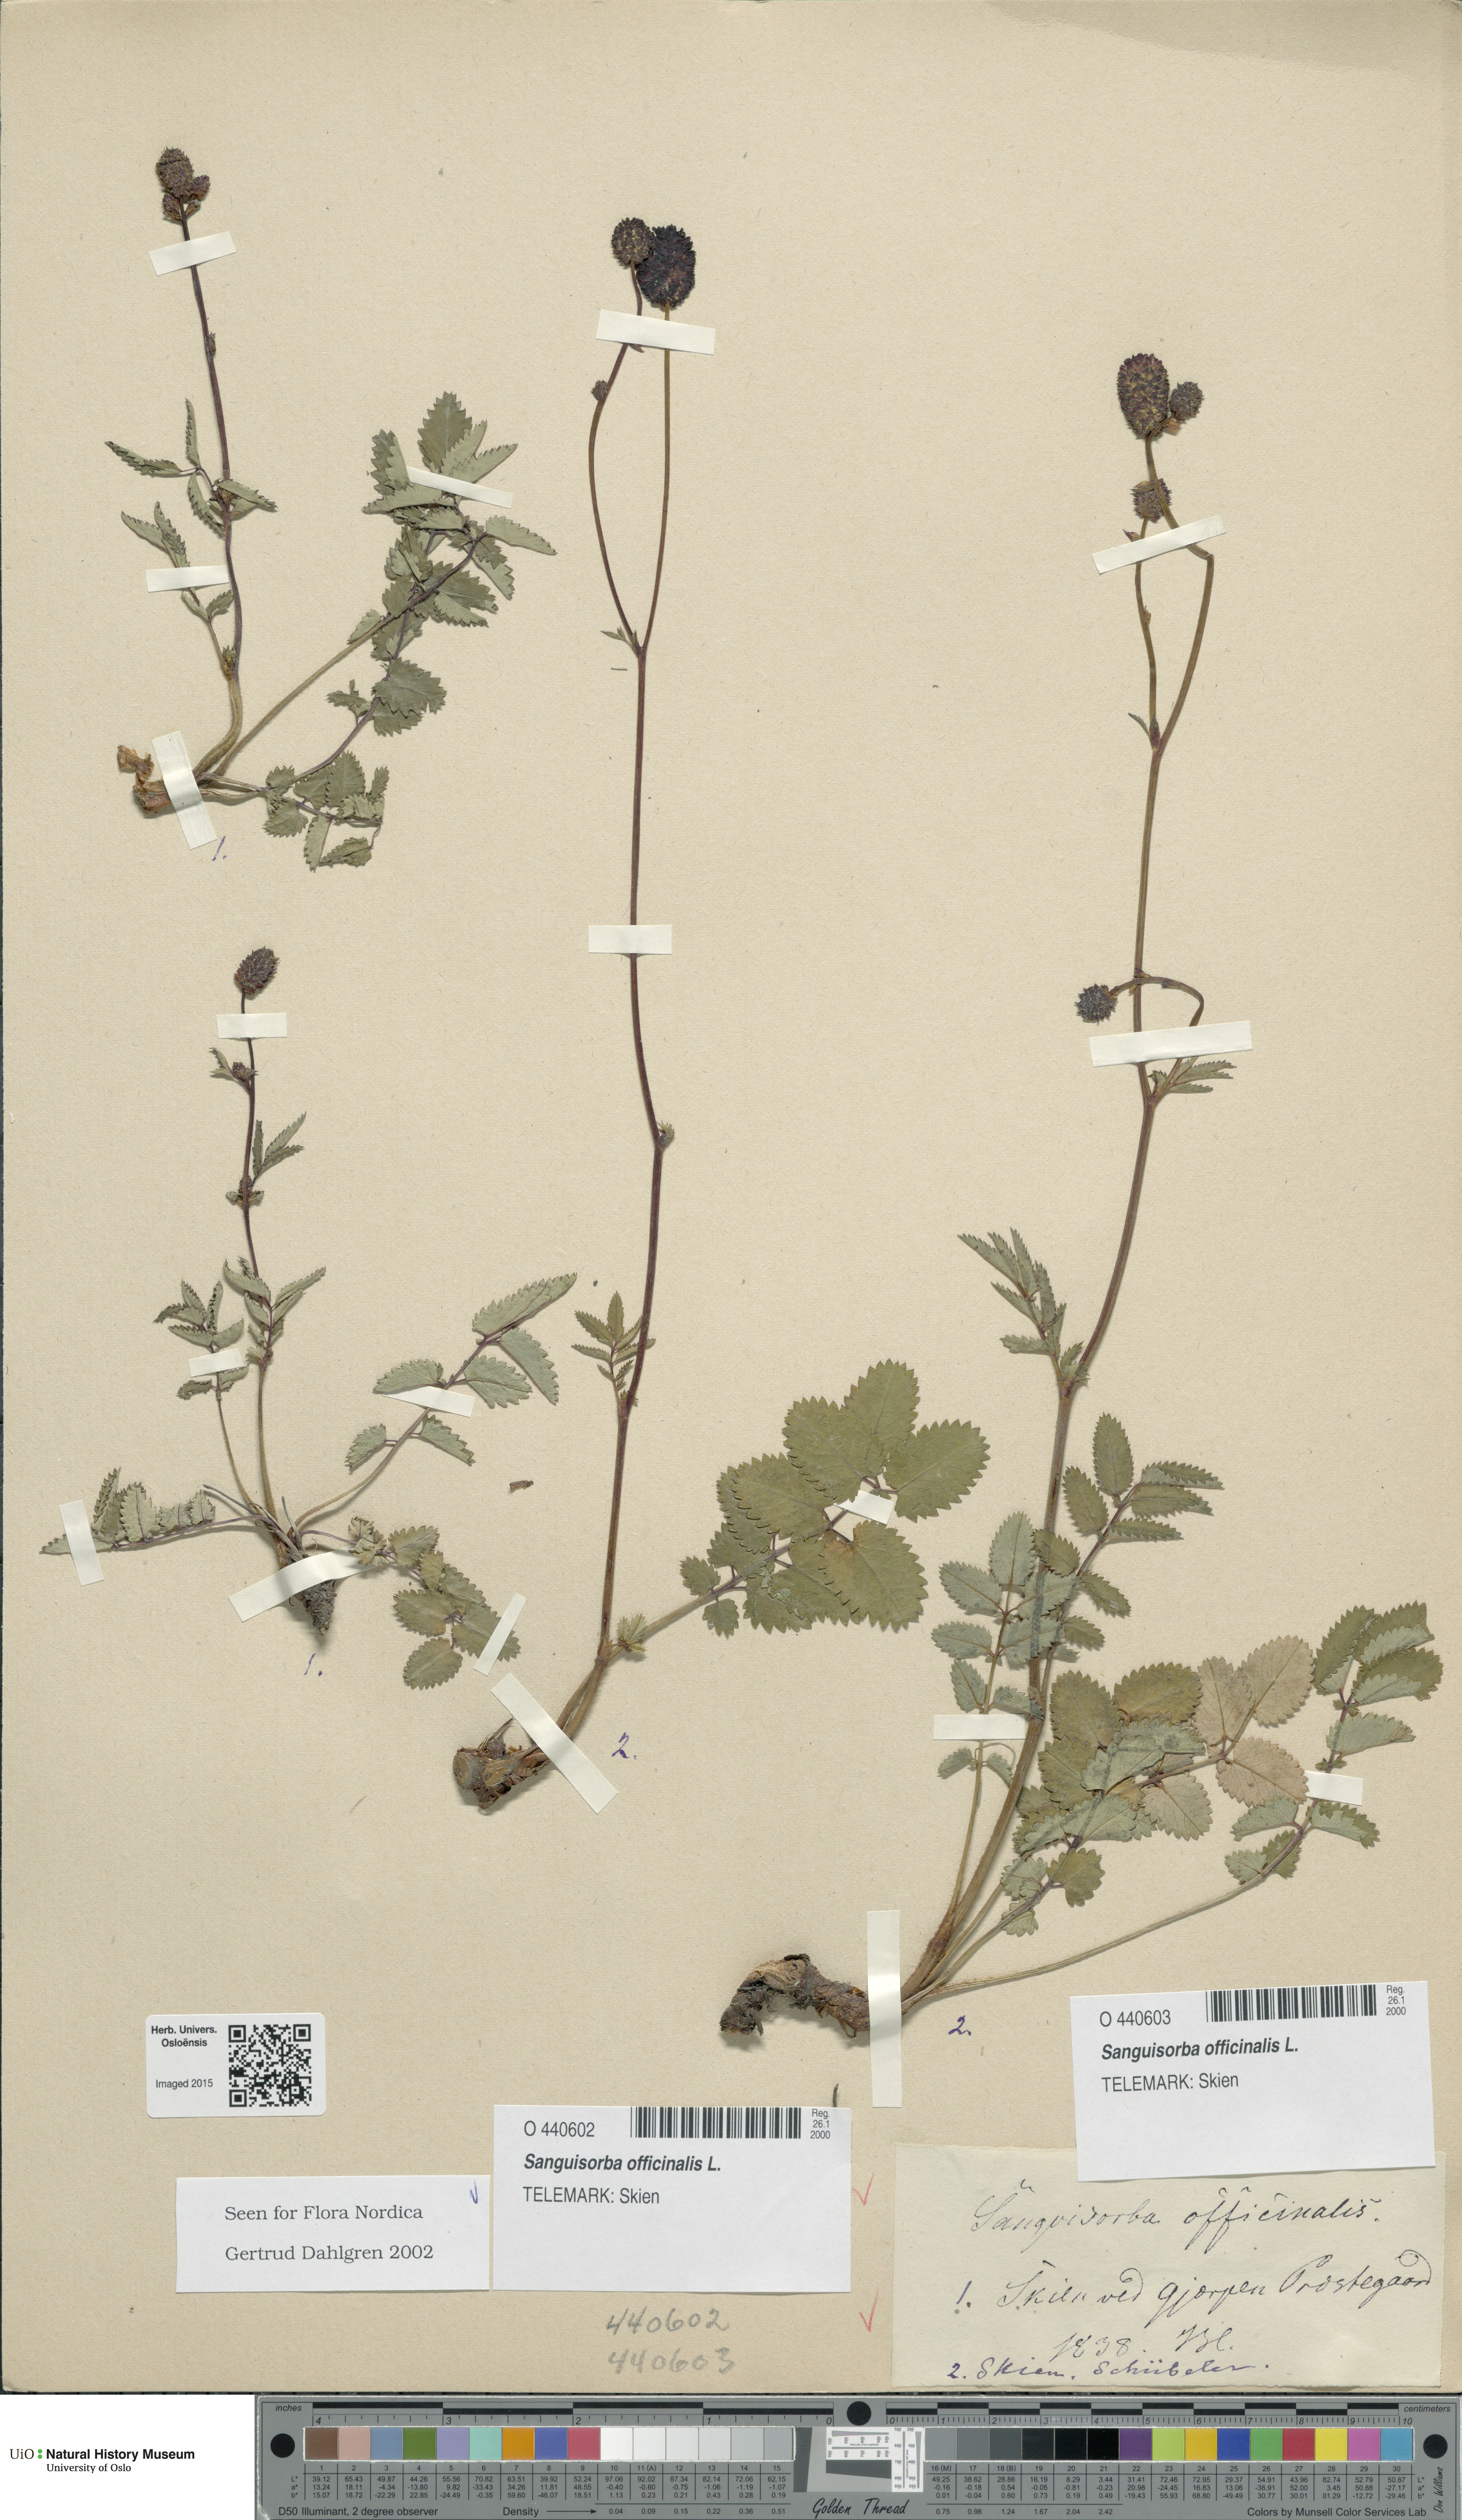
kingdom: Plantae
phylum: Tracheophyta
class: Magnoliopsida
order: Rosales
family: Rosaceae
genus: Sanguisorba
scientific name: Sanguisorba officinalis
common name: Great burnet
